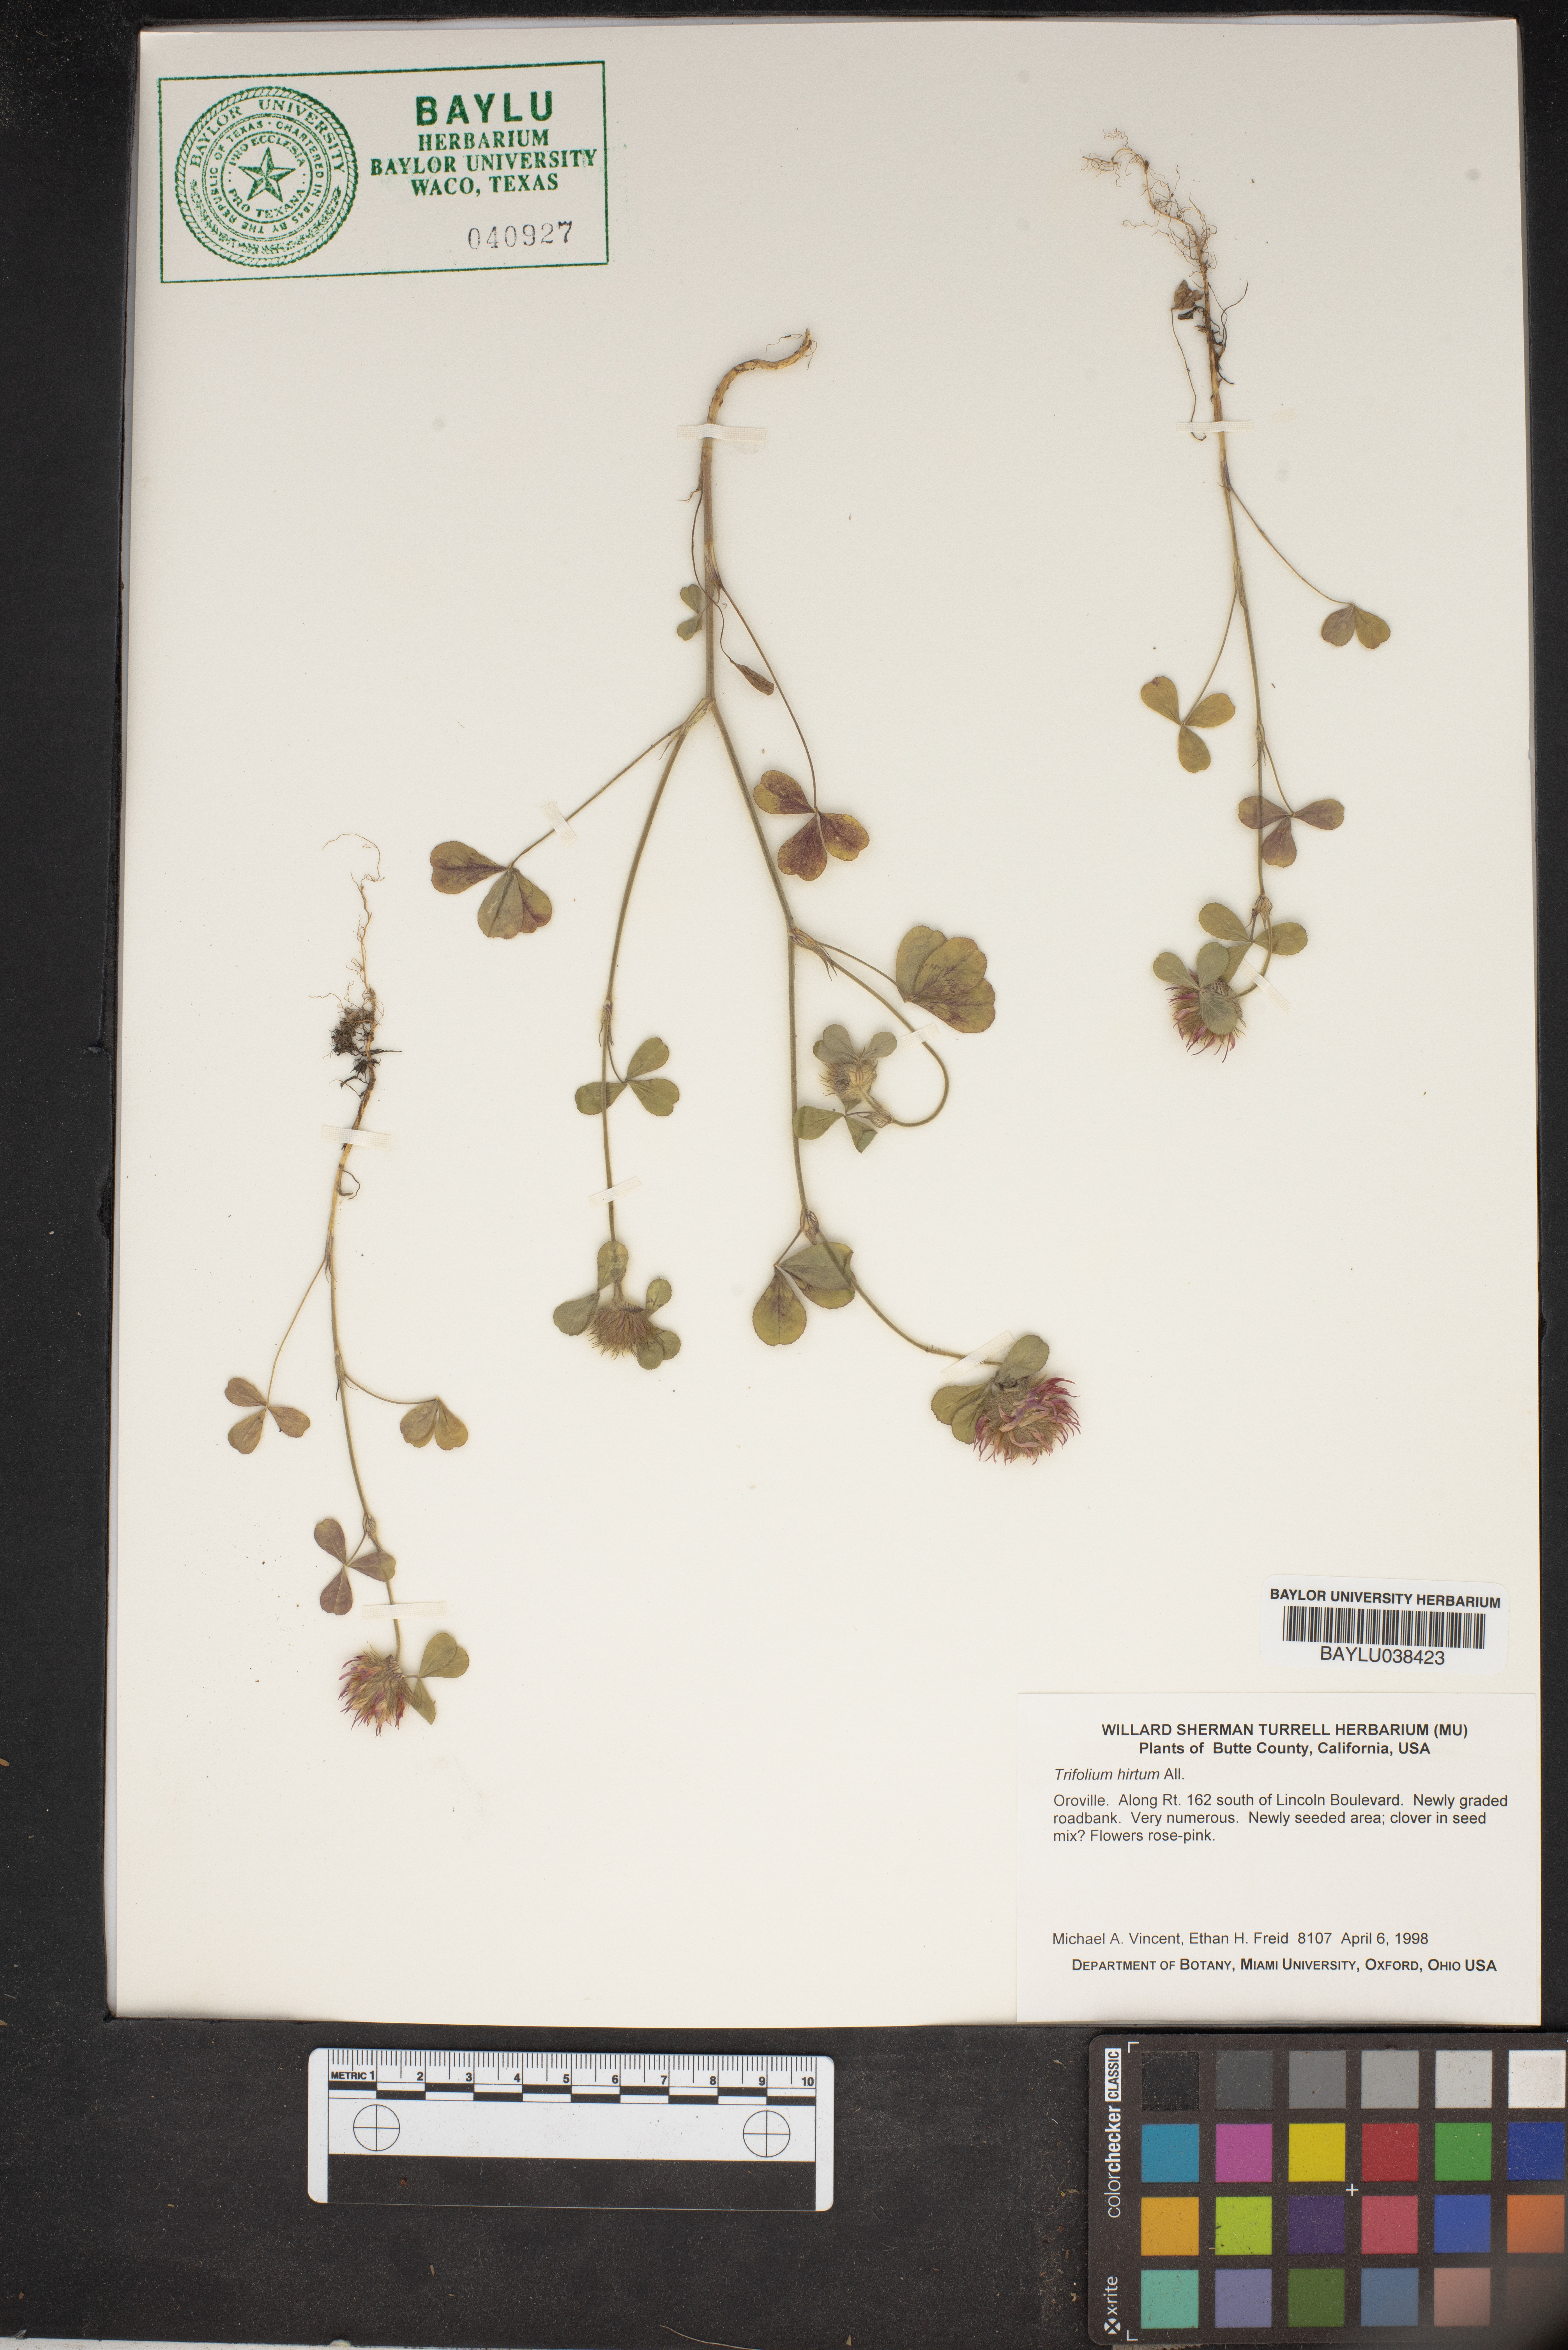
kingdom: Plantae
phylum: Tracheophyta
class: Magnoliopsida
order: Fabales
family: Fabaceae
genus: Trifolium
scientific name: Trifolium hirtum
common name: Rose clover
